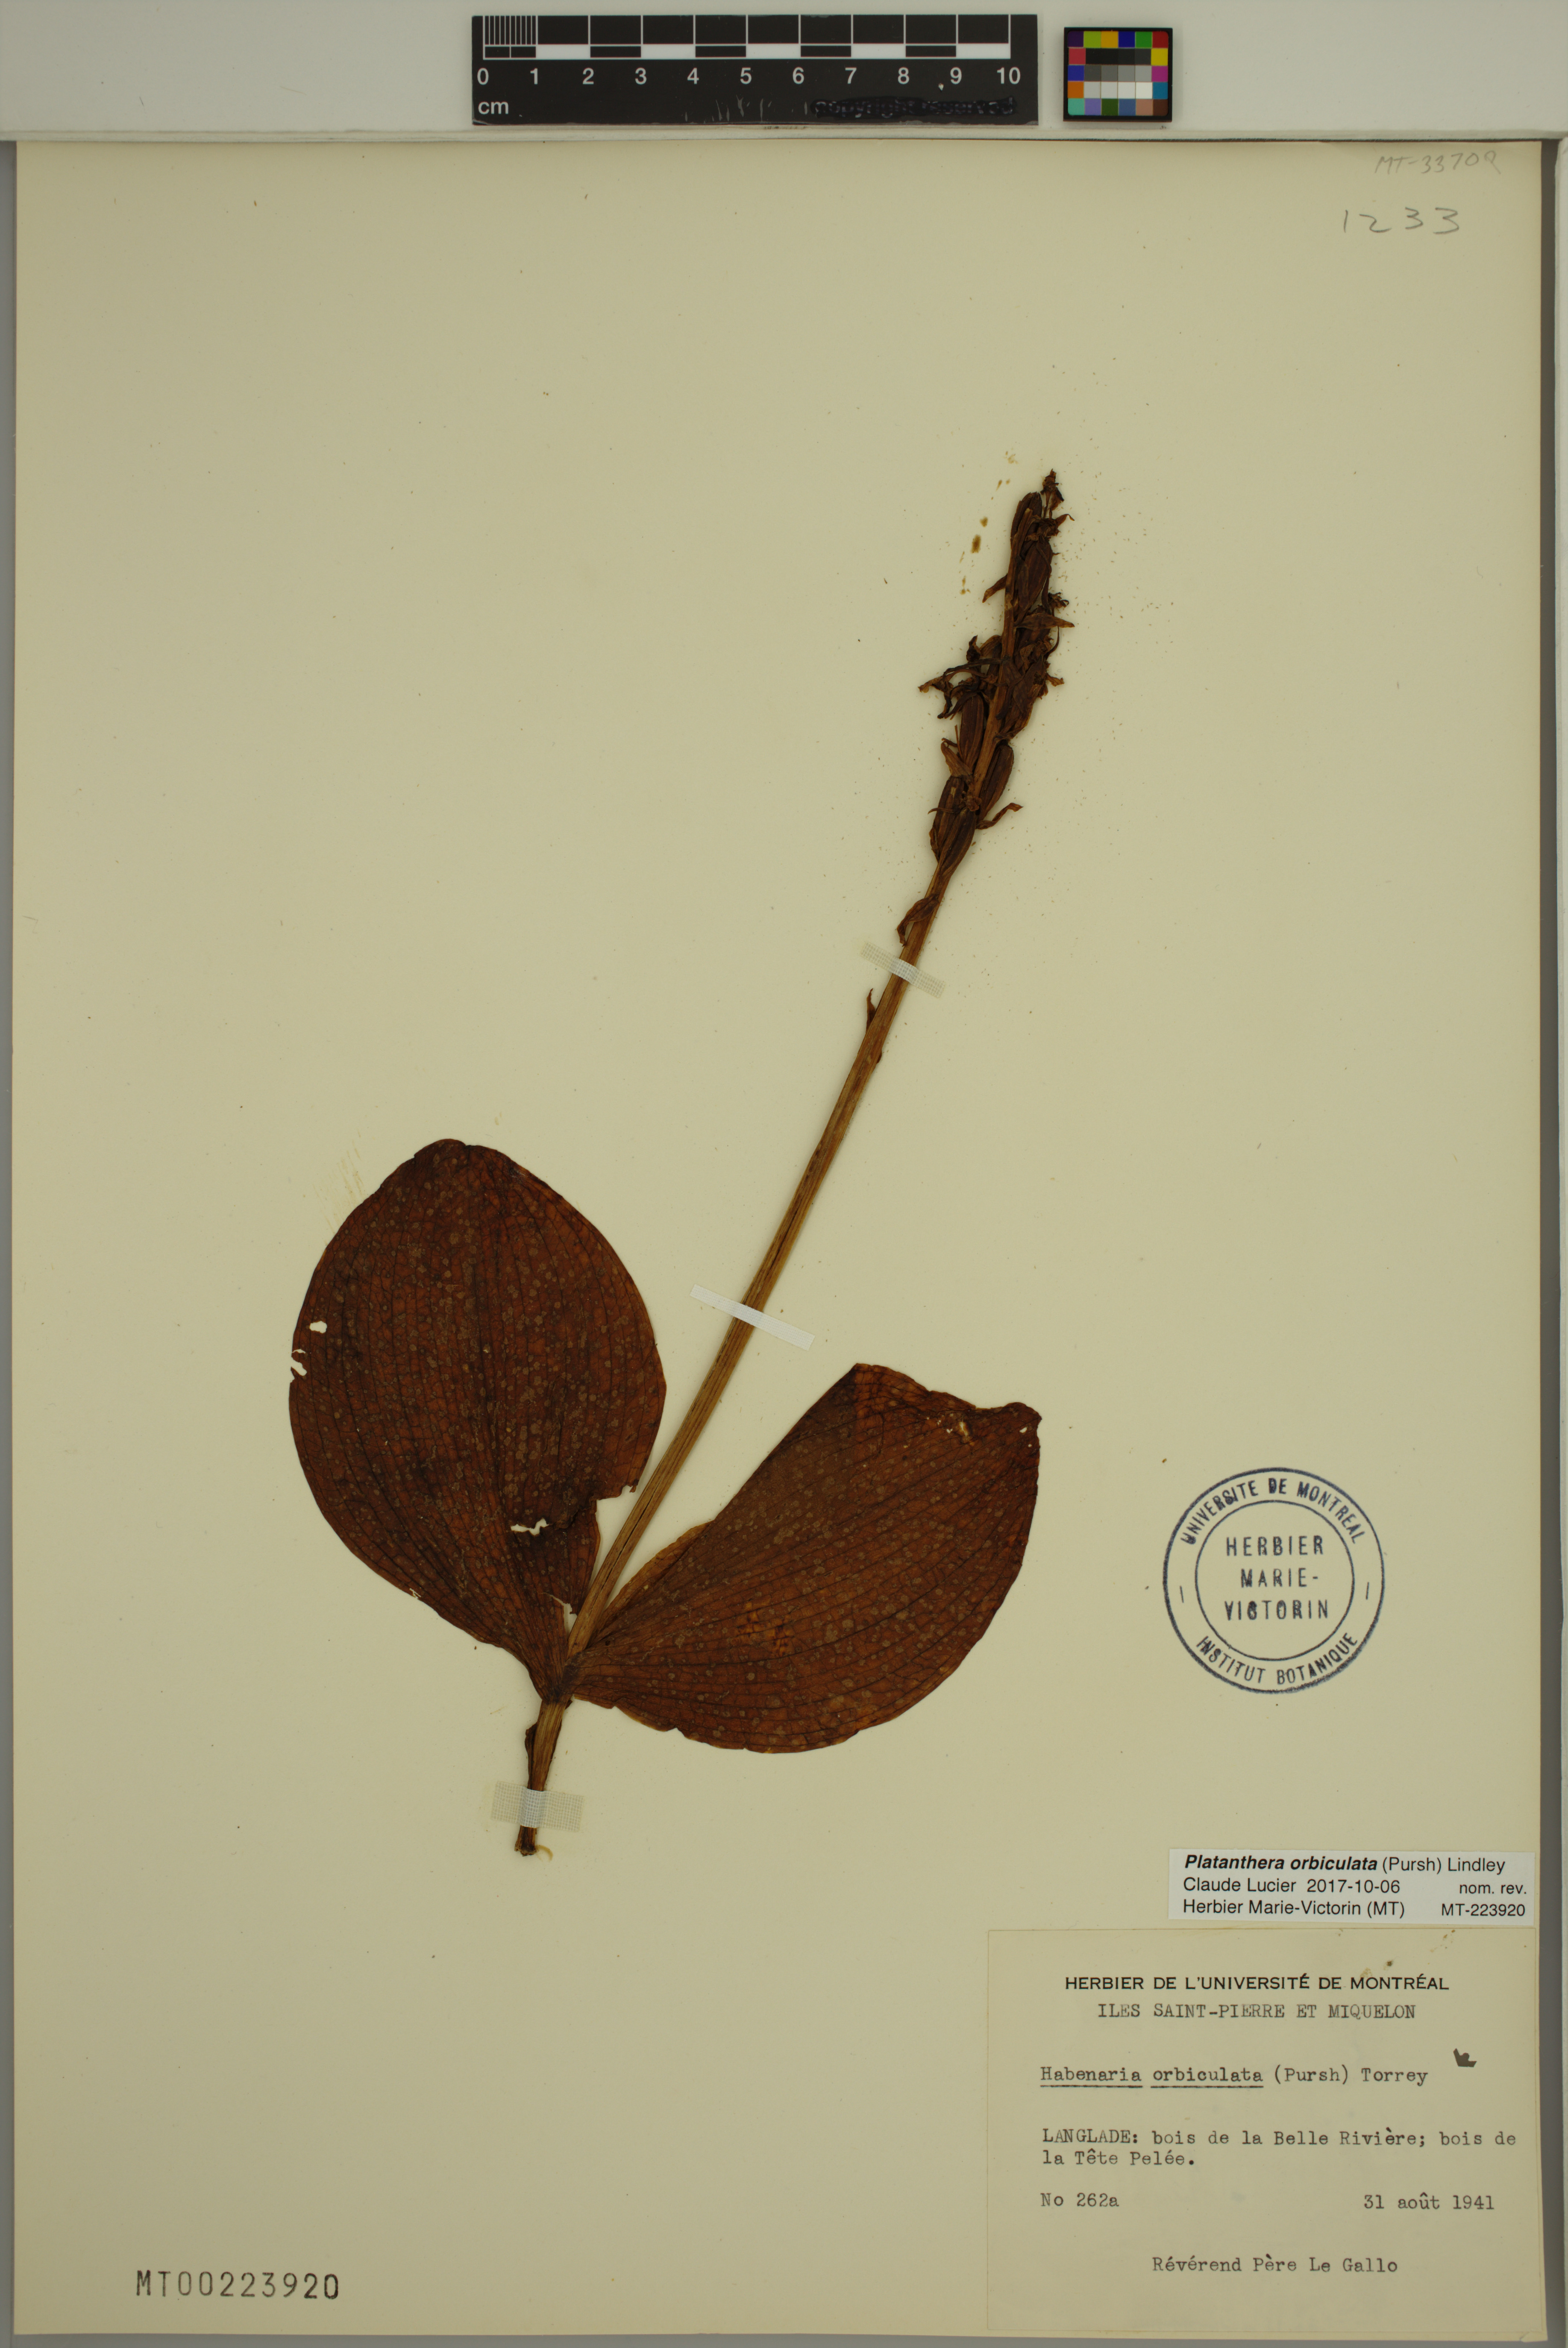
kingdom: Plantae
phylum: Tracheophyta
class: Liliopsida
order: Asparagales
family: Orchidaceae
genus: Platanthera
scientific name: Platanthera orbiculata
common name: Large round-leaved orchid
